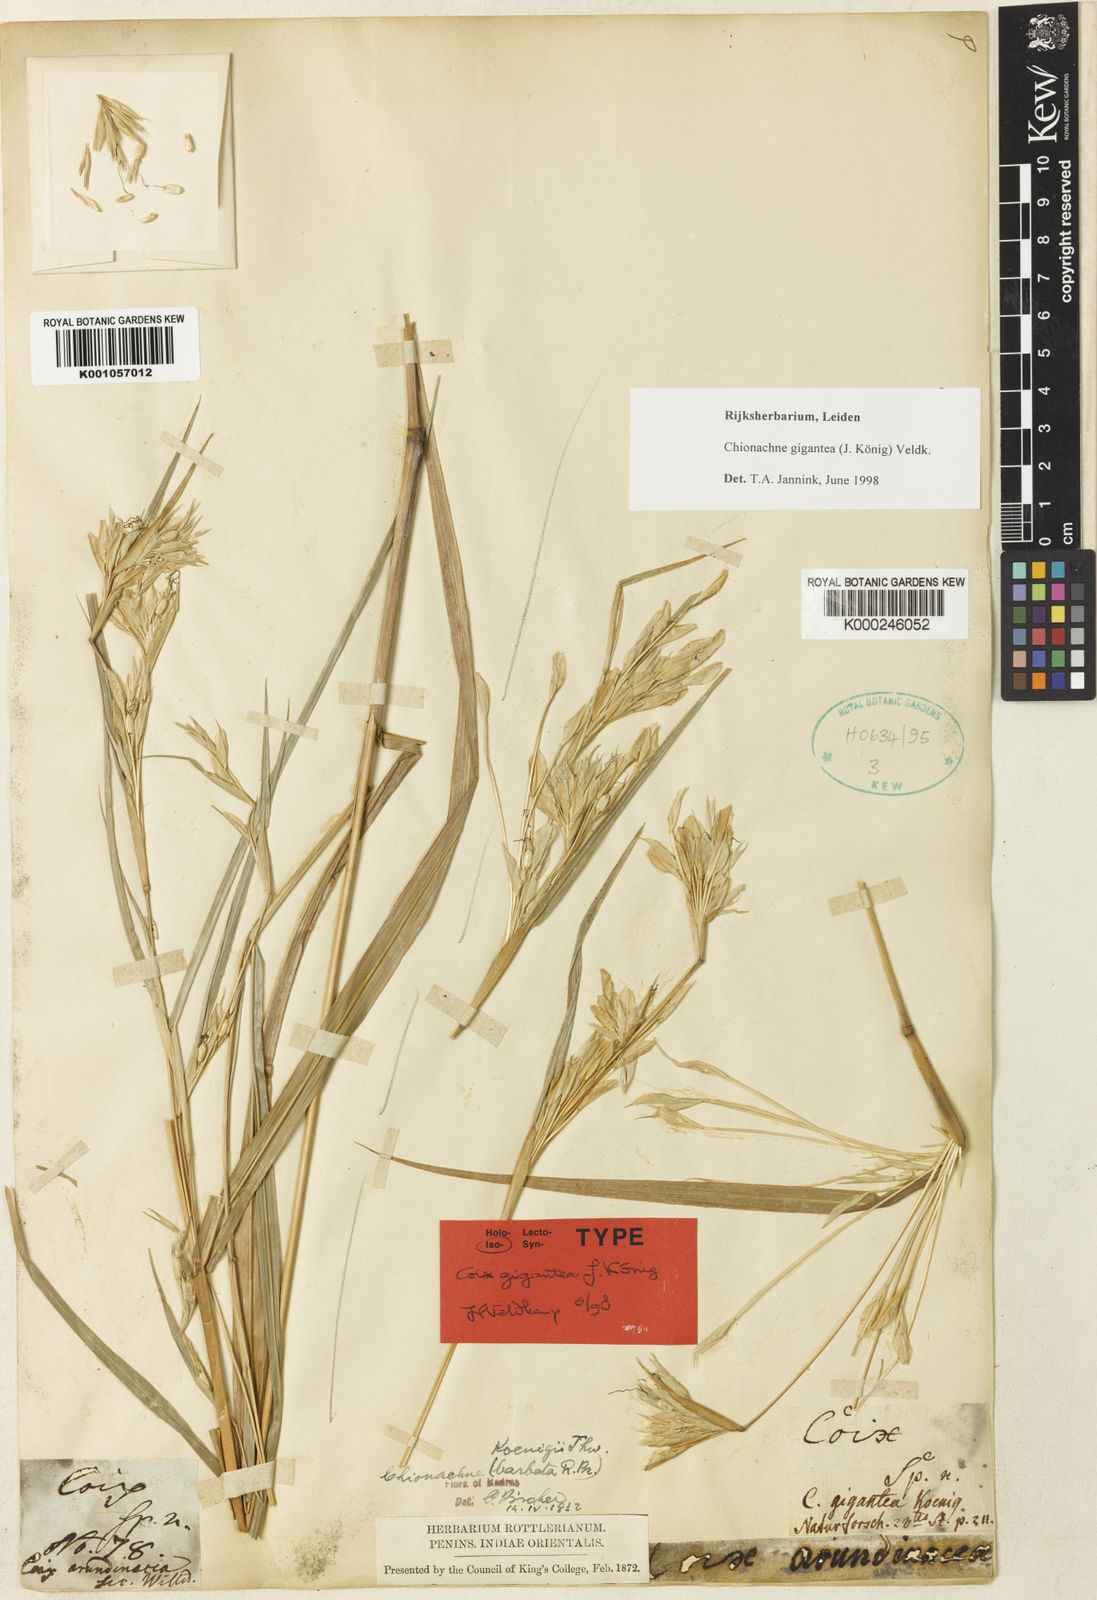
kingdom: Plantae
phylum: Tracheophyta
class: Liliopsida
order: Poales
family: Poaceae
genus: Polytoca
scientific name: Polytoca gigantea
